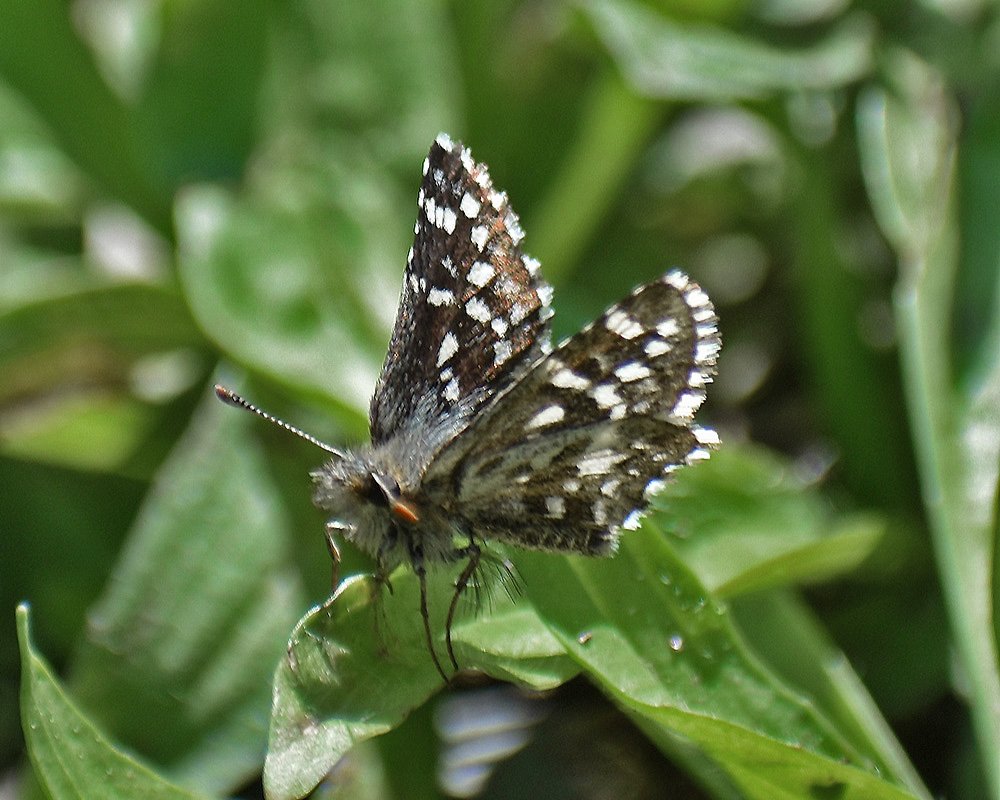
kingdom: Animalia
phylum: Arthropoda
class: Insecta
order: Lepidoptera
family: Hesperiidae
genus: Pyrgus
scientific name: Pyrgus ruralis
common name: Two-banded Checkered-Skipper
